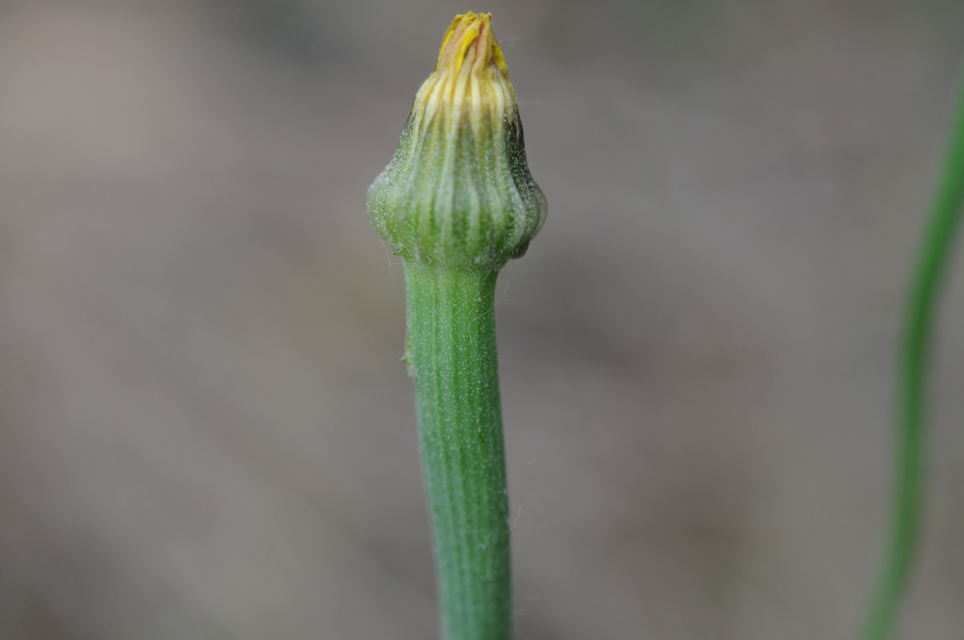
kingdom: Plantae
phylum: Tracheophyta
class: Magnoliopsida
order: Asterales
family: Asteraceae
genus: Arnoseris
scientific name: Arnoseris minima
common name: Lamb's succory
